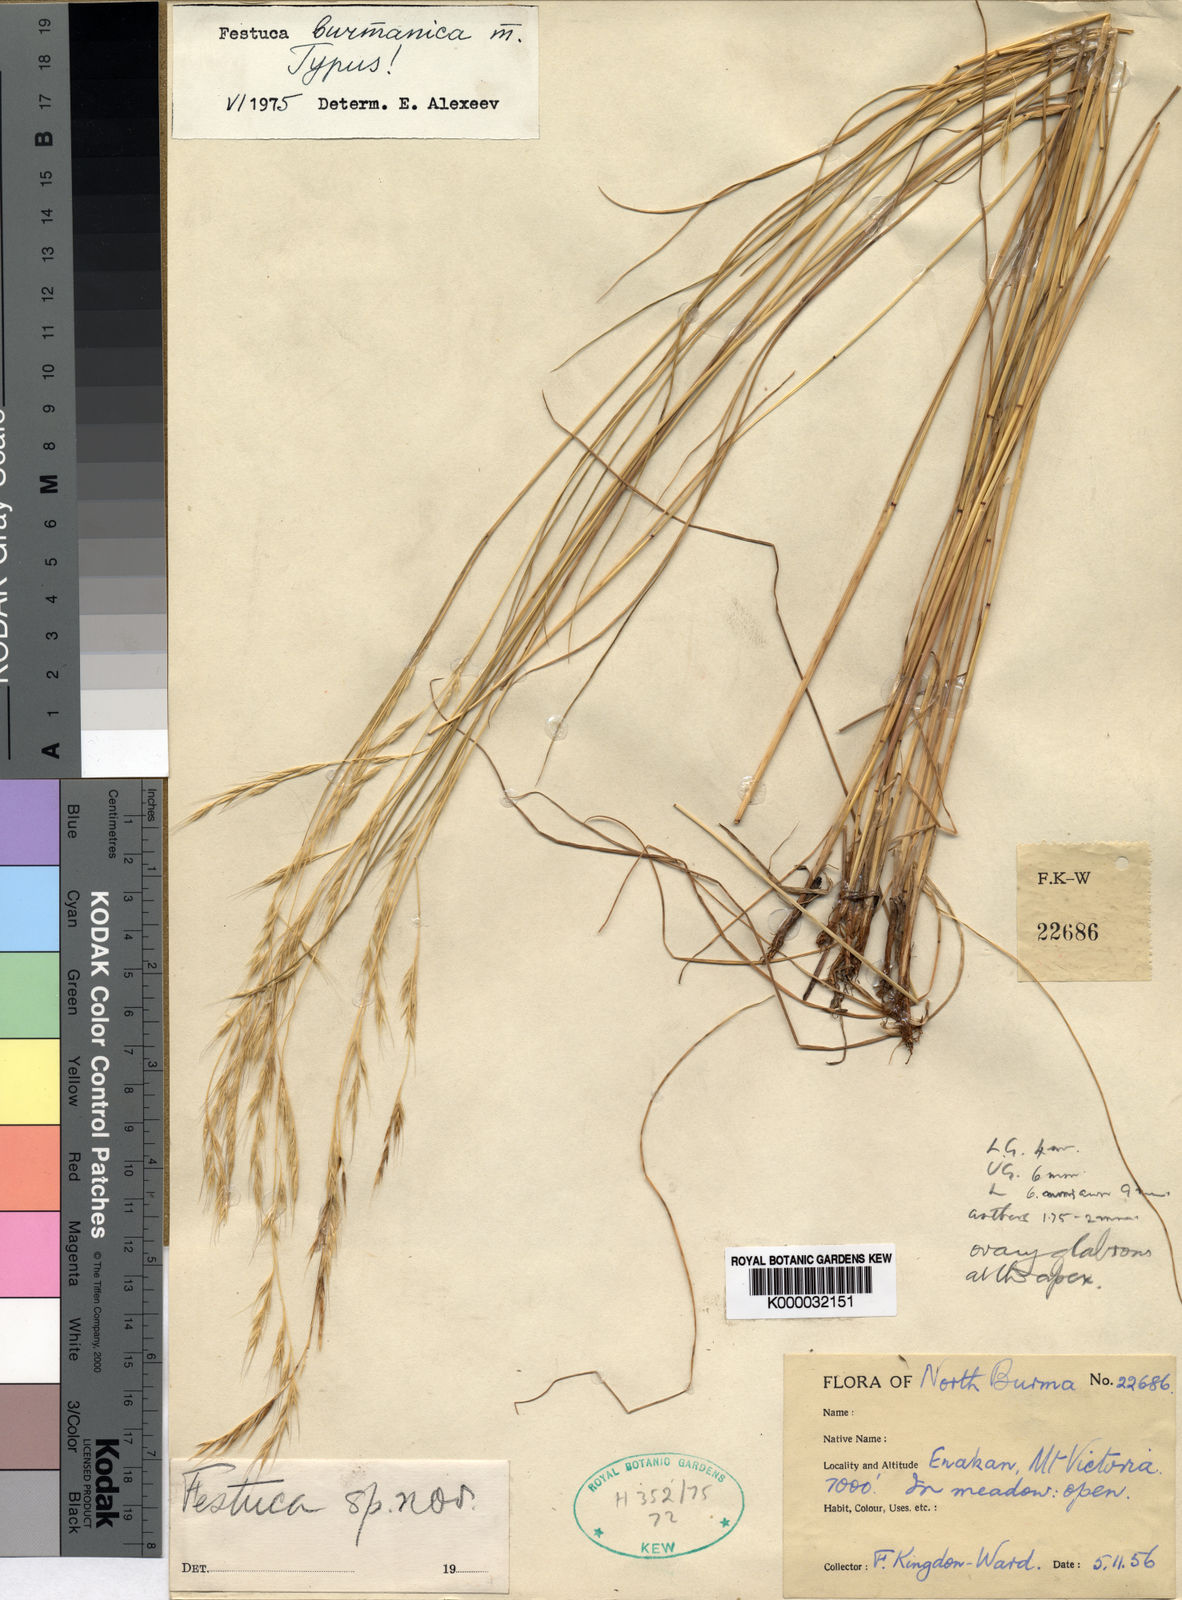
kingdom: Plantae
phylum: Tracheophyta
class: Liliopsida
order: Poales
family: Poaceae
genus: Festuca
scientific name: Festuca burmanica
